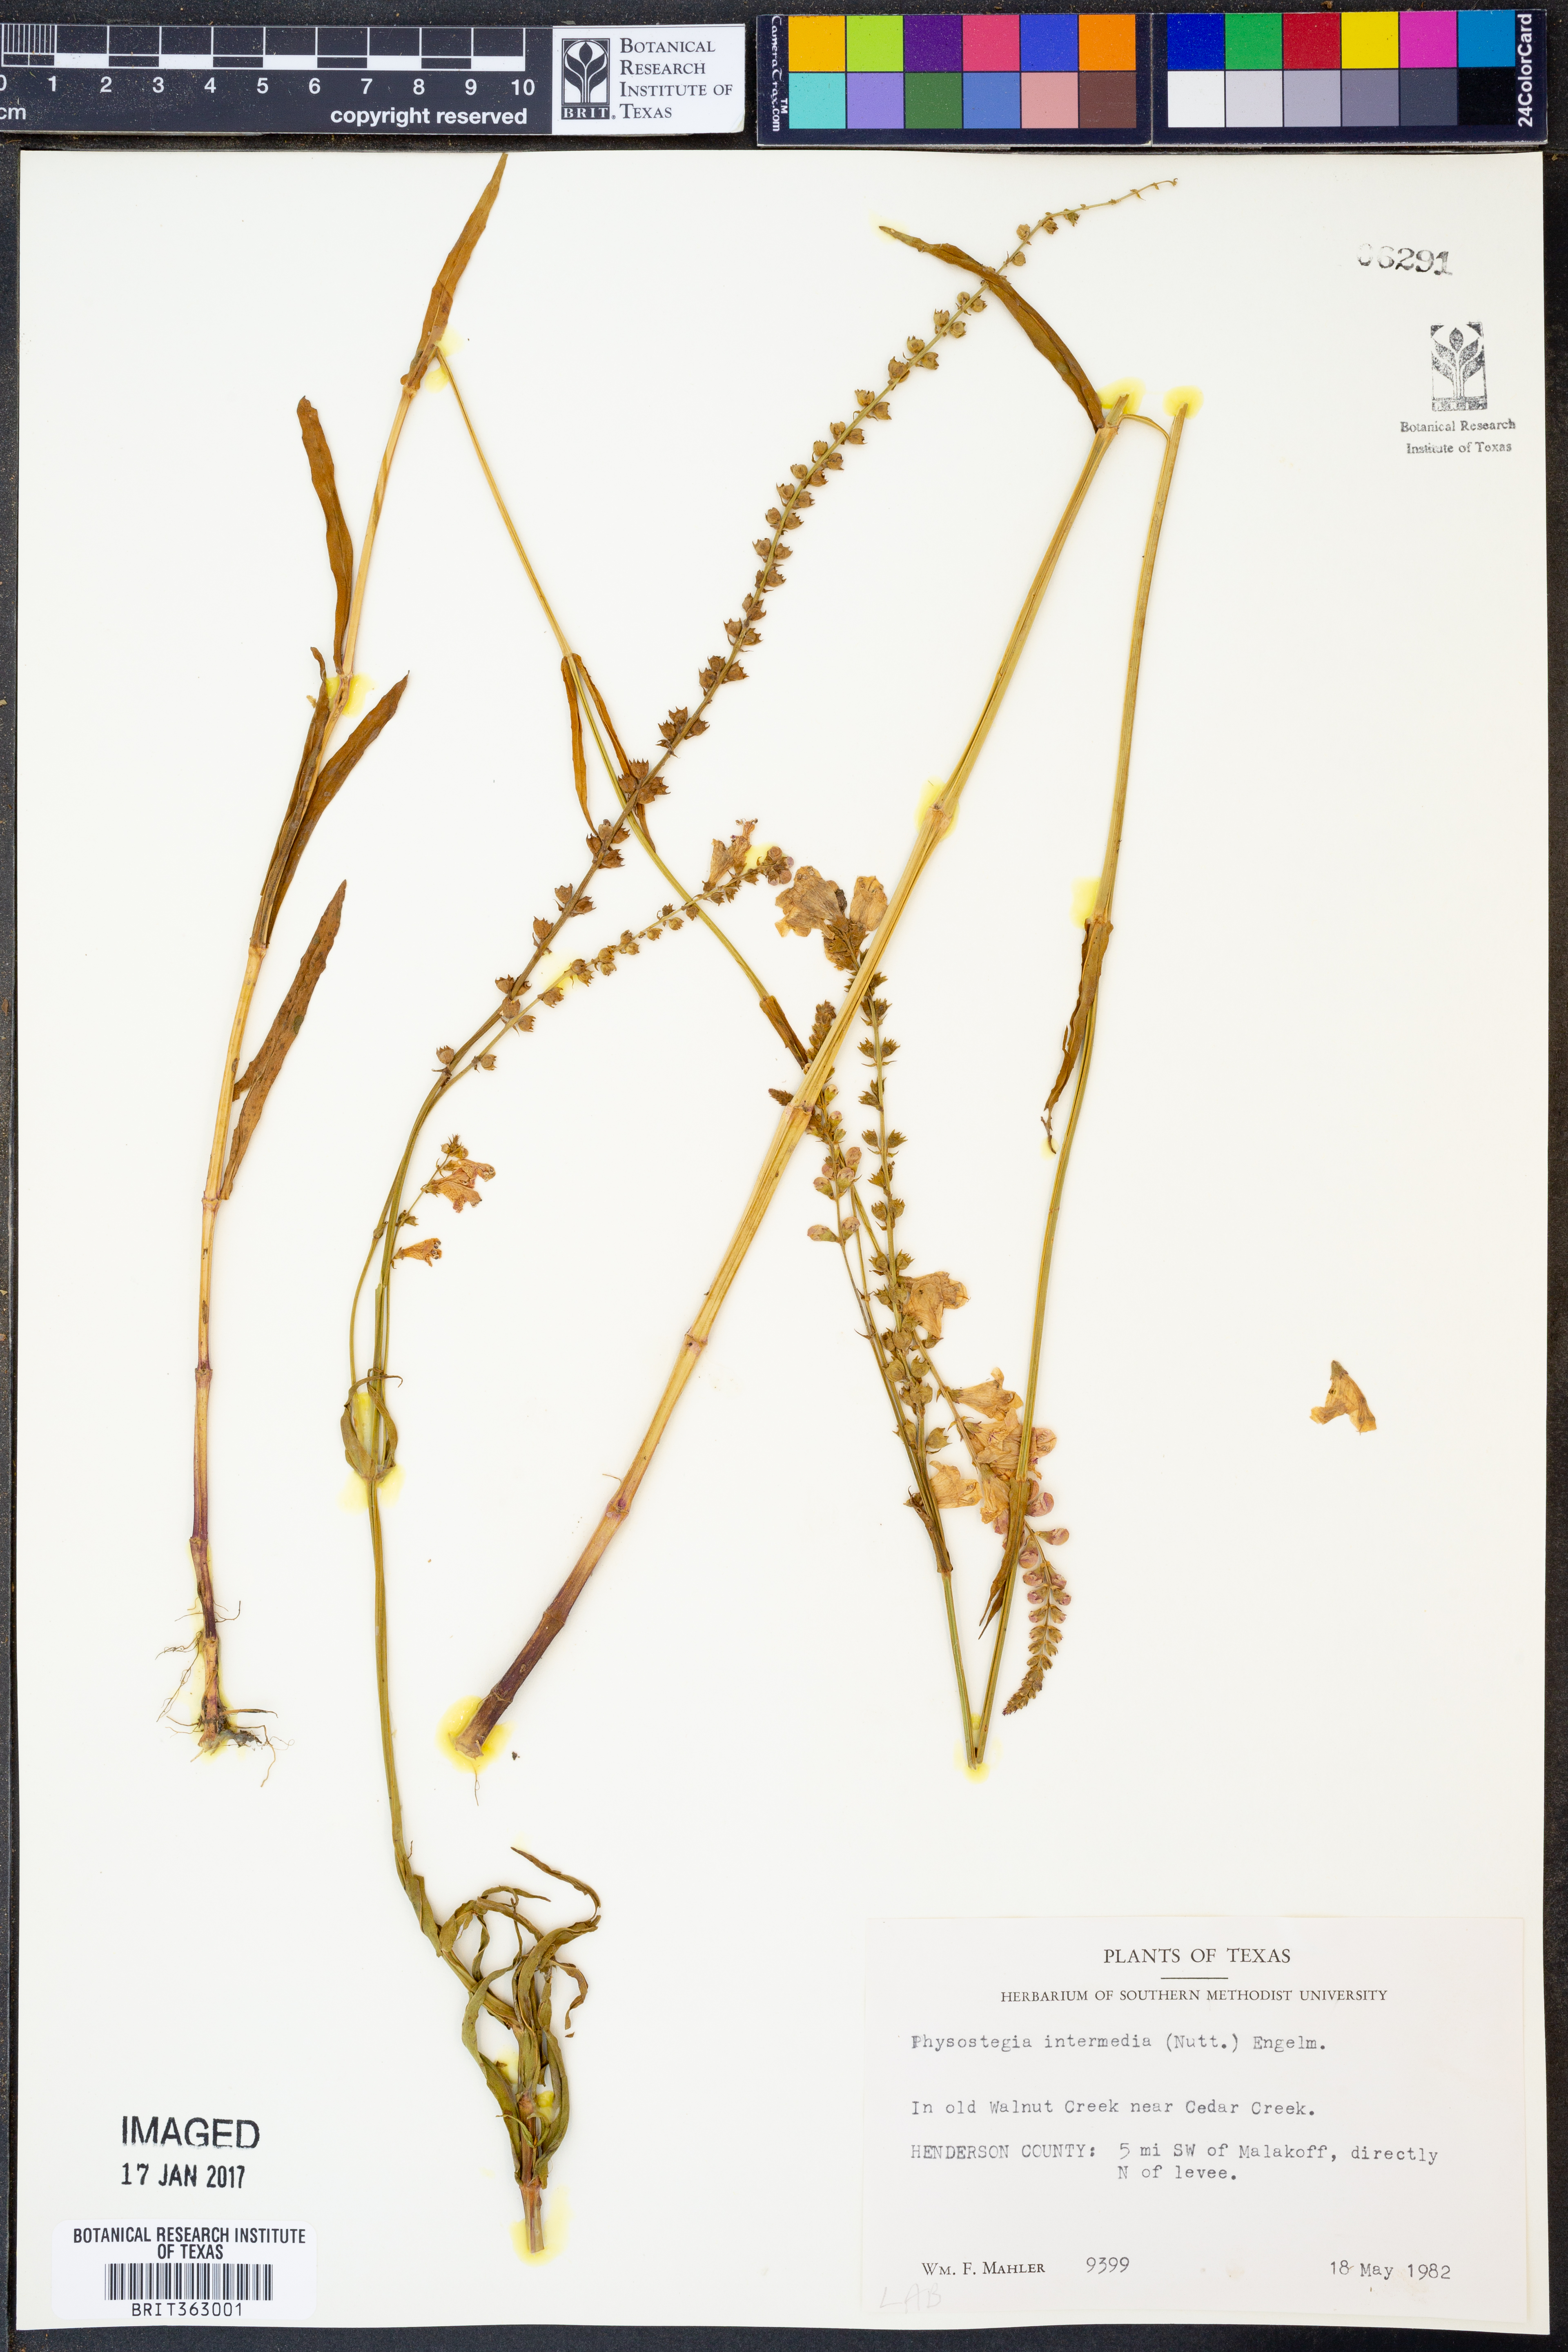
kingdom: Plantae
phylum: Tracheophyta
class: Magnoliopsida
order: Lamiales
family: Lamiaceae
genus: Physostegia
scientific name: Physostegia intermedia
